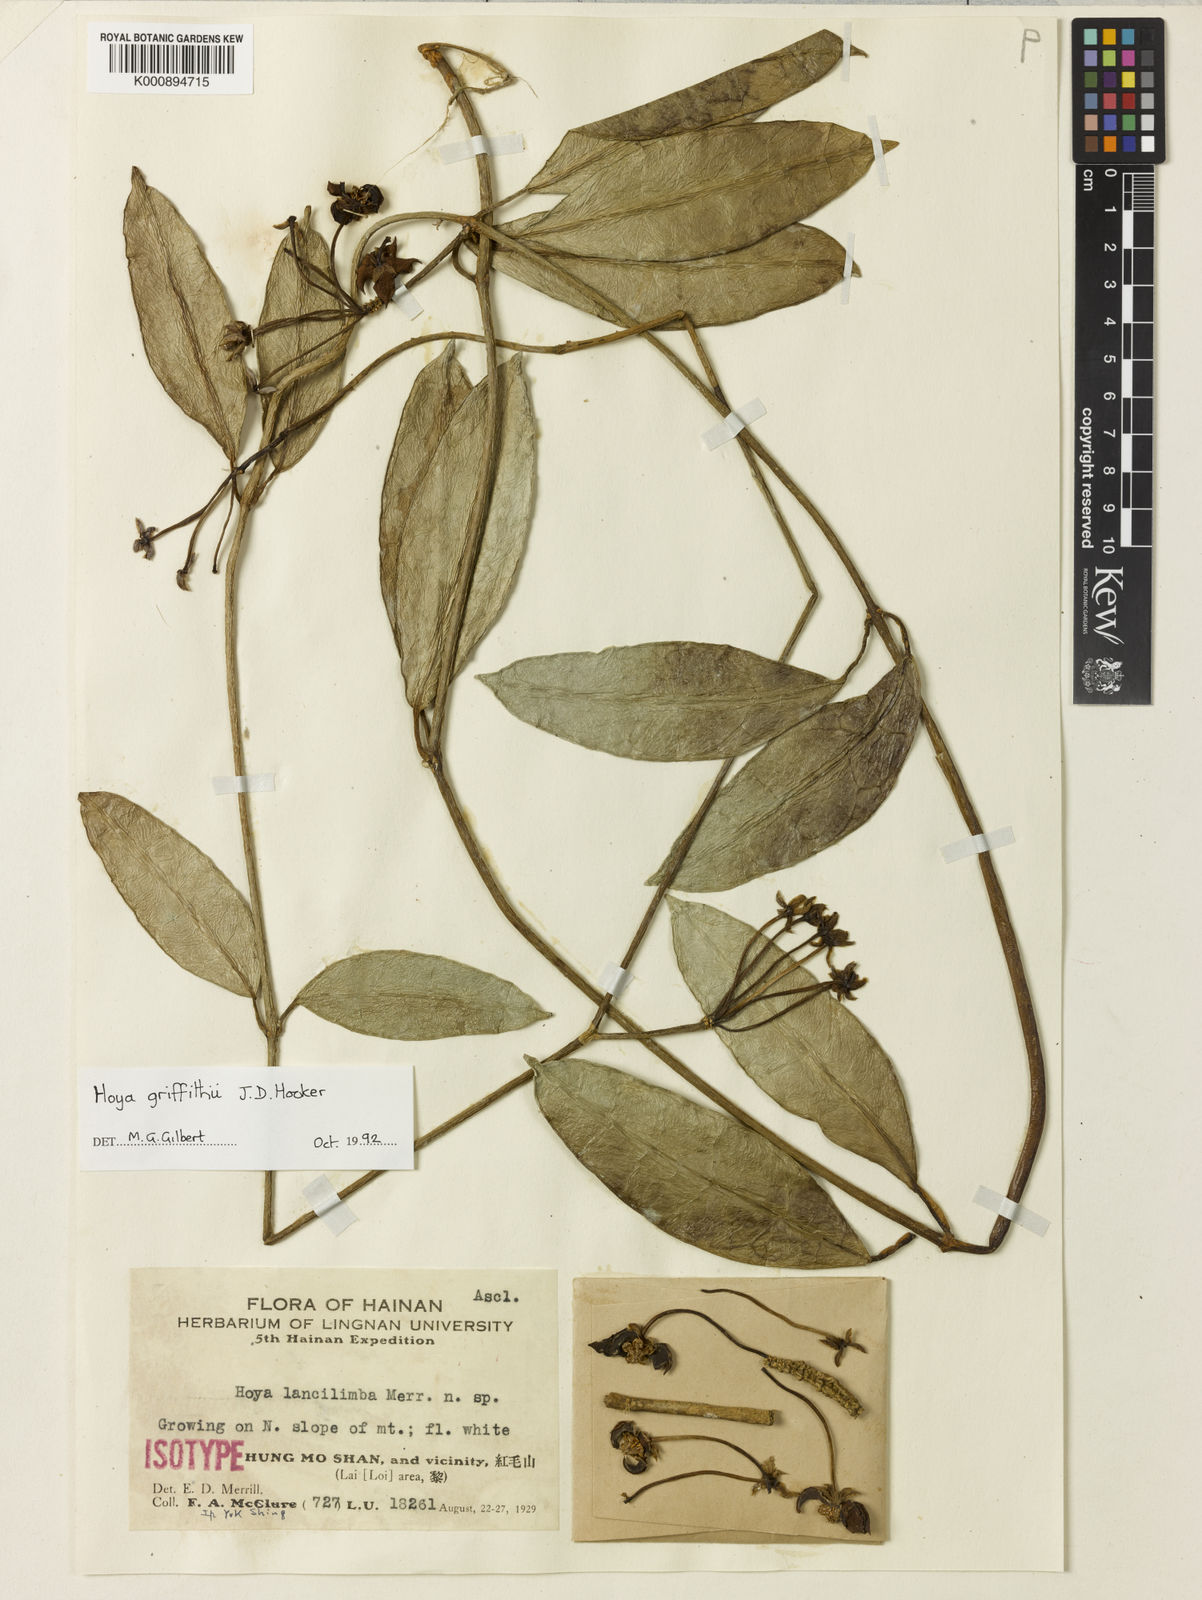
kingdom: Plantae
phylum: Tracheophyta
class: Magnoliopsida
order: Gentianales
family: Apocynaceae
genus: Hoya
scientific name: Hoya griffithii
